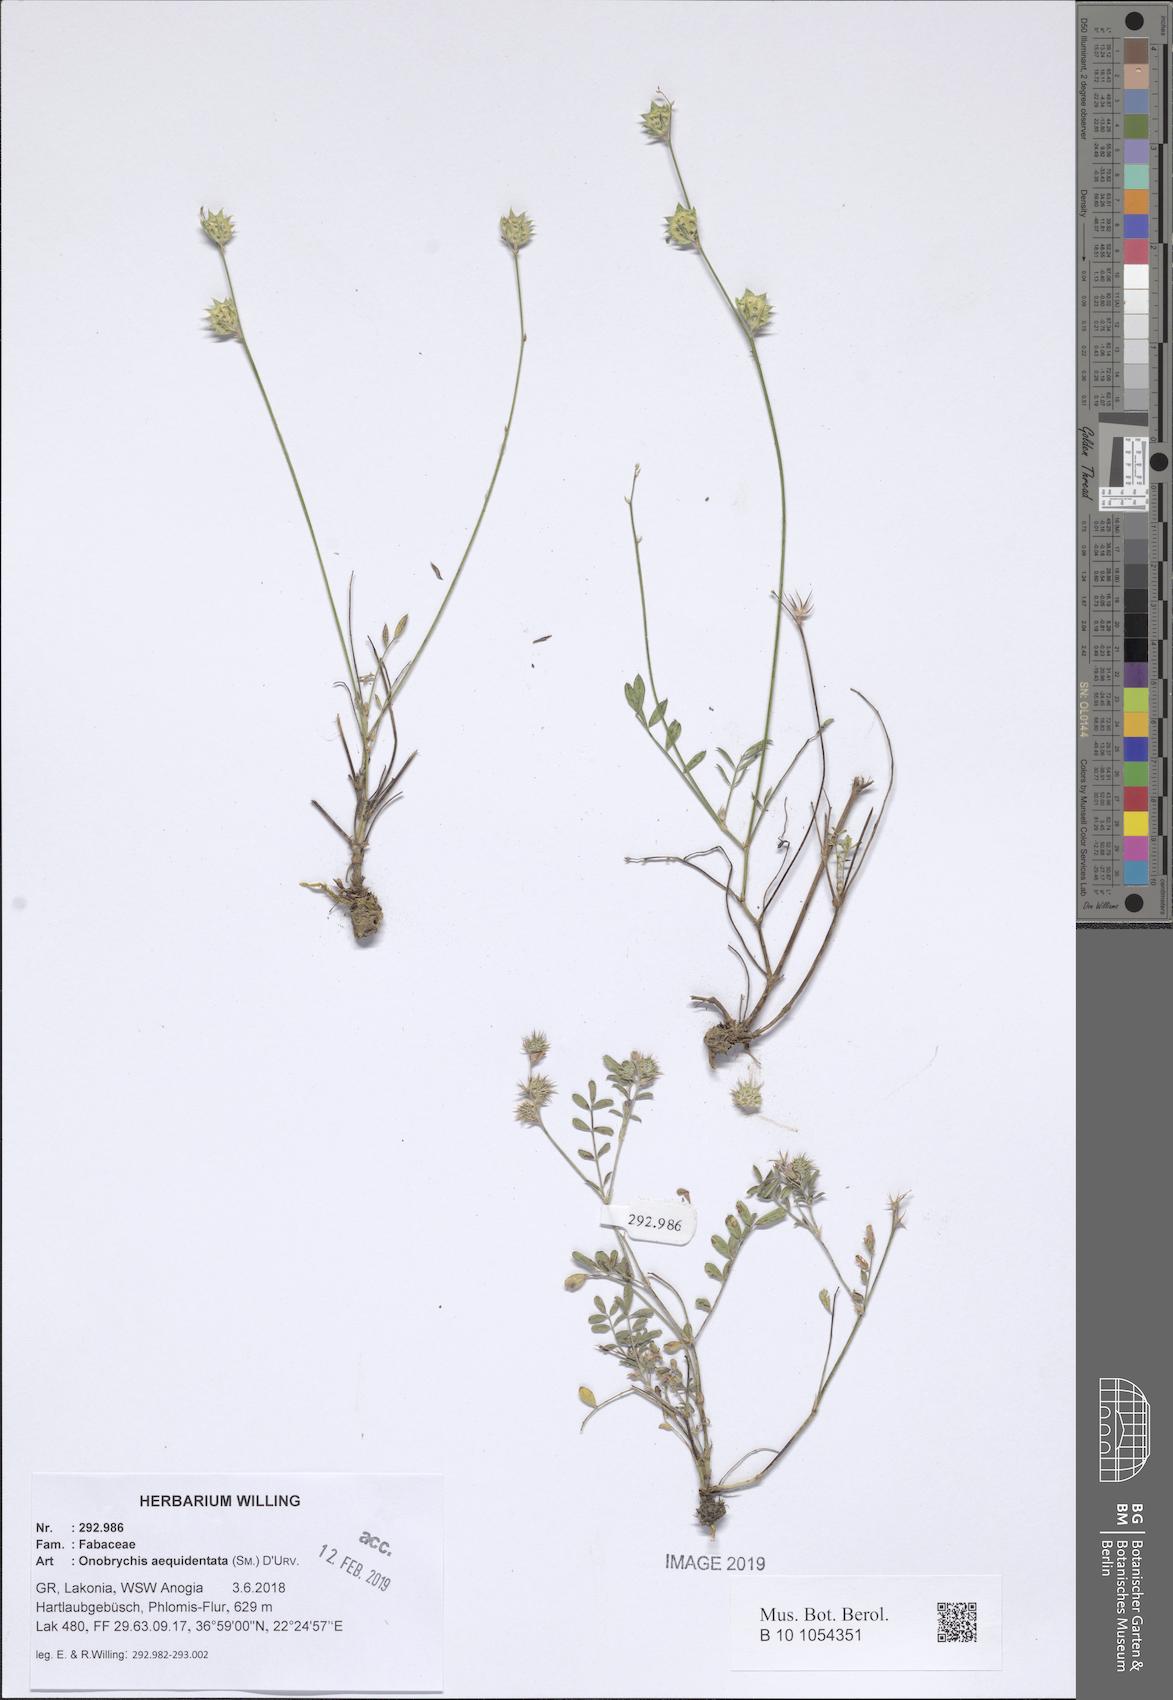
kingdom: Plantae
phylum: Tracheophyta
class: Magnoliopsida
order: Fabales
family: Fabaceae
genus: Onobrychis
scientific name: Onobrychis aequidentata
